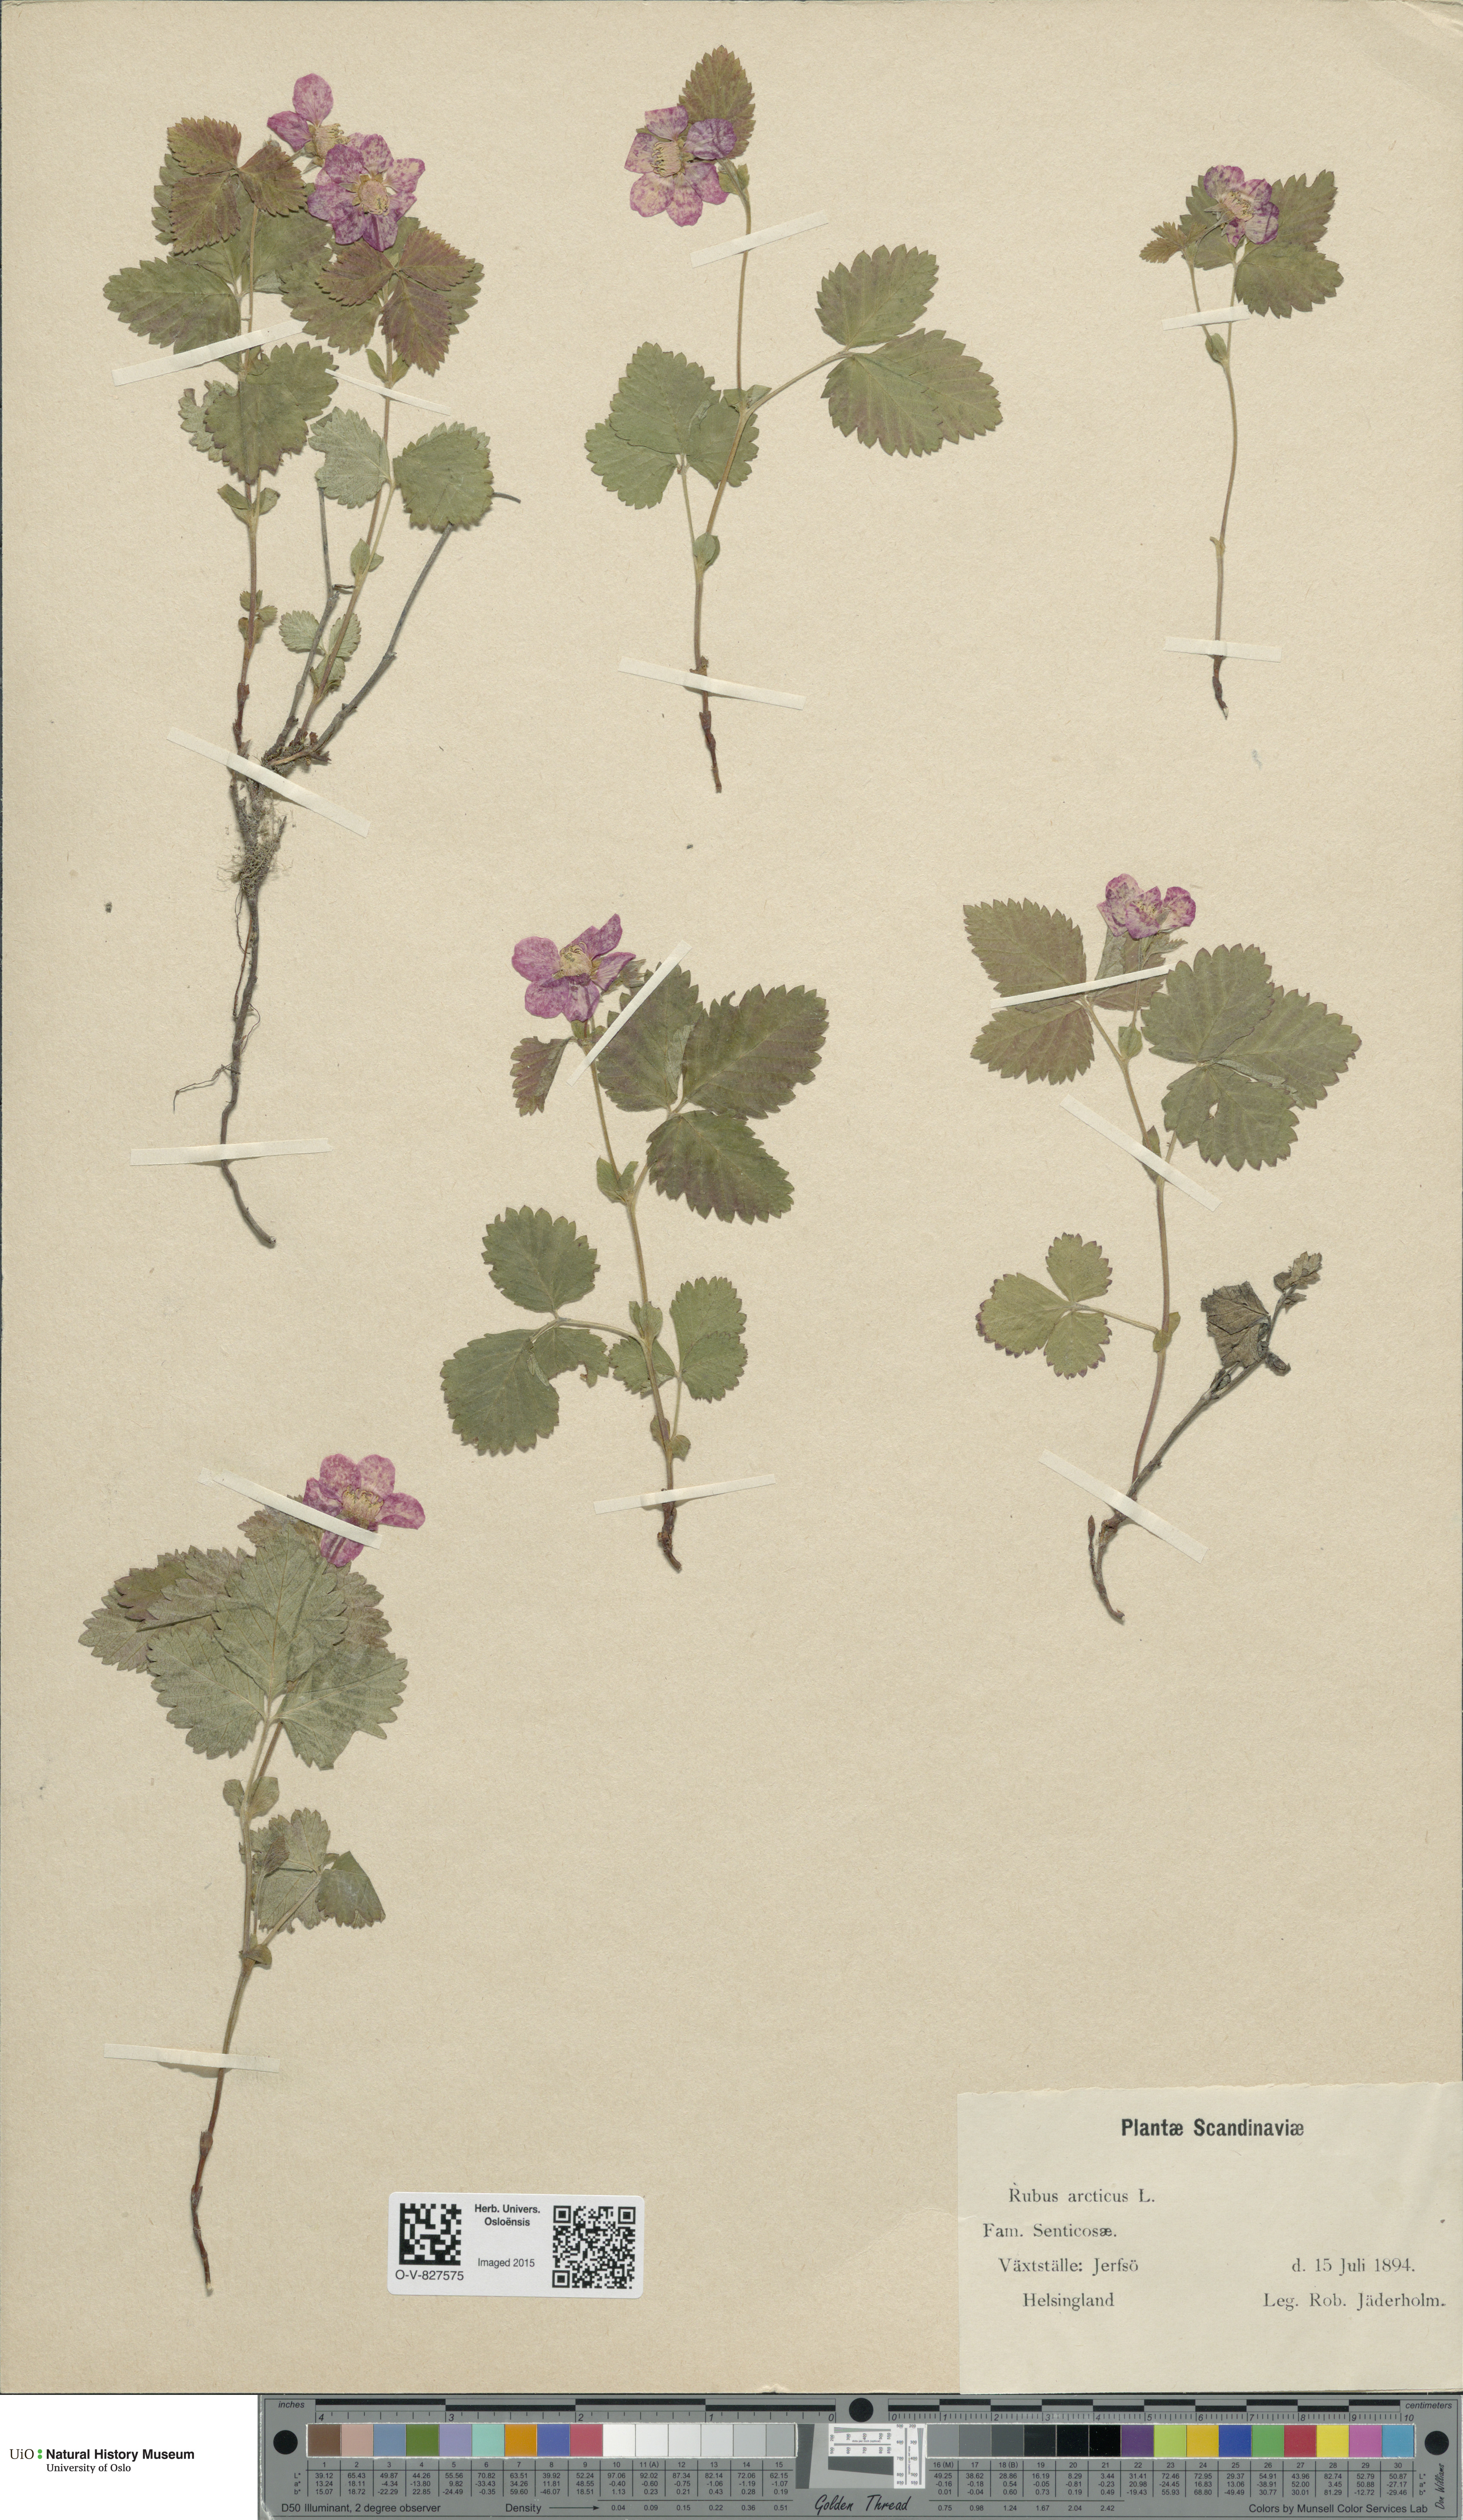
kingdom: Plantae
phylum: Tracheophyta
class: Magnoliopsida
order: Rosales
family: Rosaceae
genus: Rubus
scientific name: Rubus arcticus
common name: Arctic bramble
